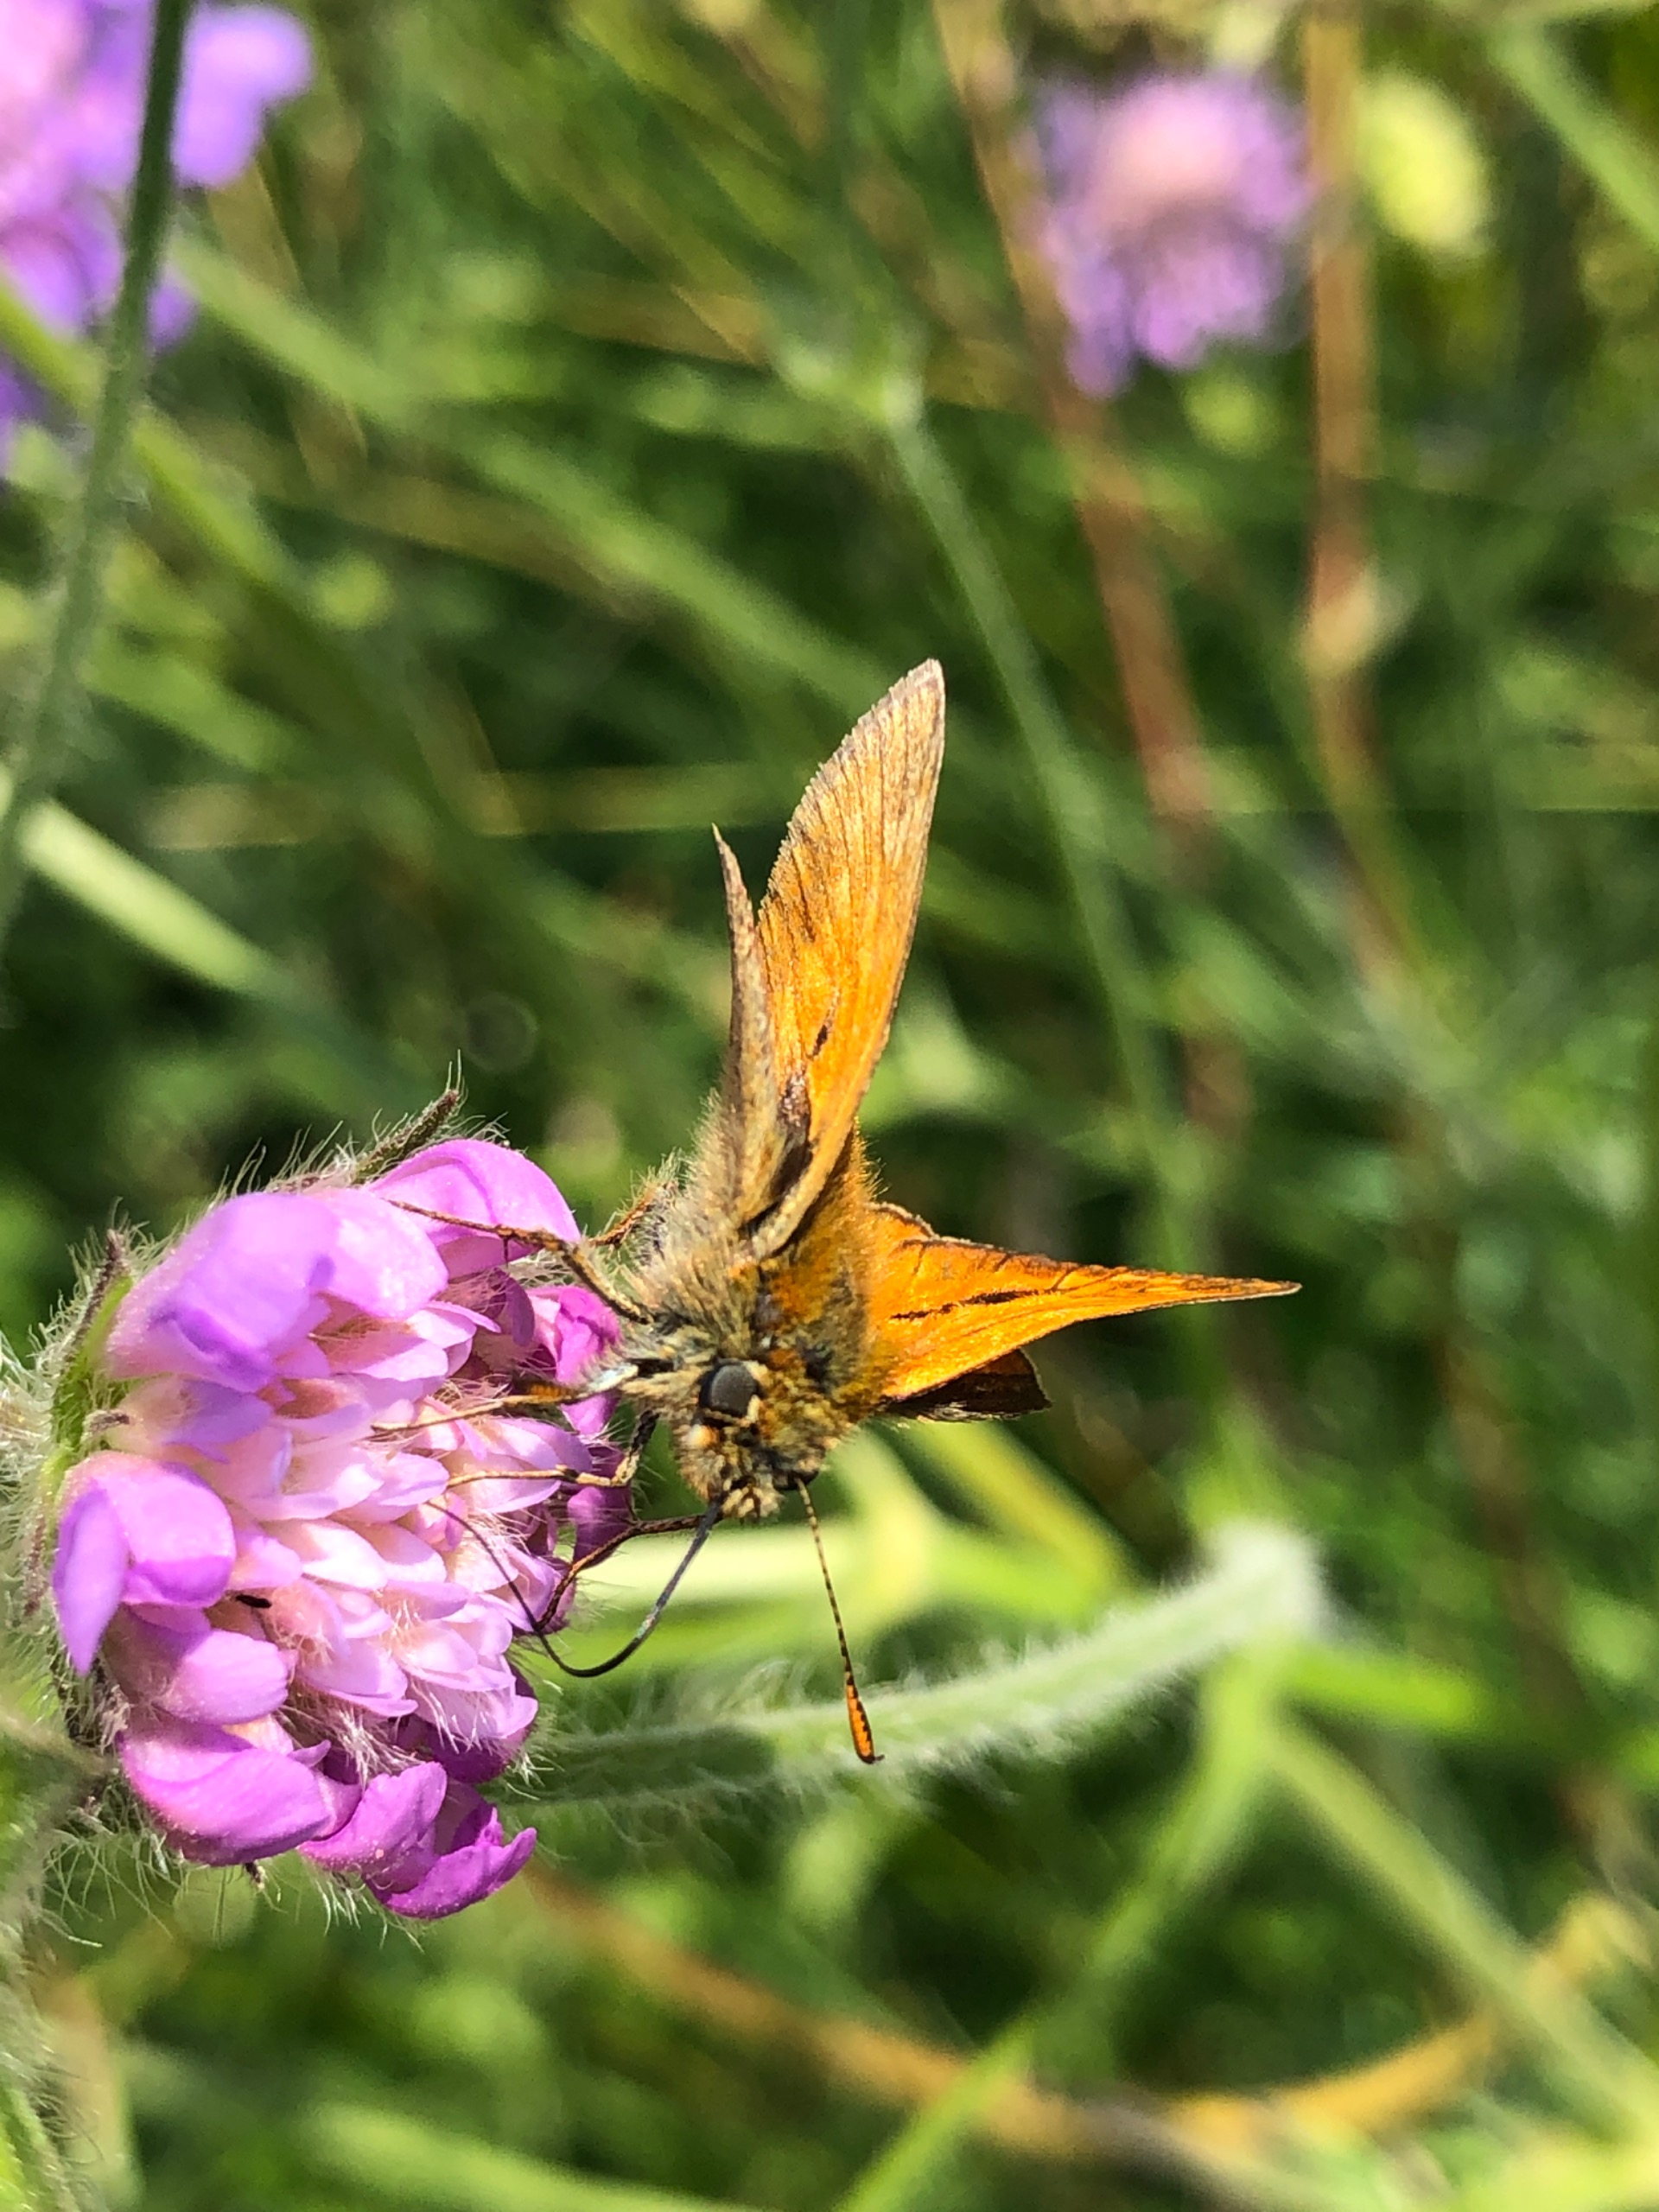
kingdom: Animalia
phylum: Arthropoda
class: Insecta
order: Lepidoptera
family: Hesperiidae
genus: Ochlodes
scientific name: Ochlodes venata
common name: Stor bredpande
